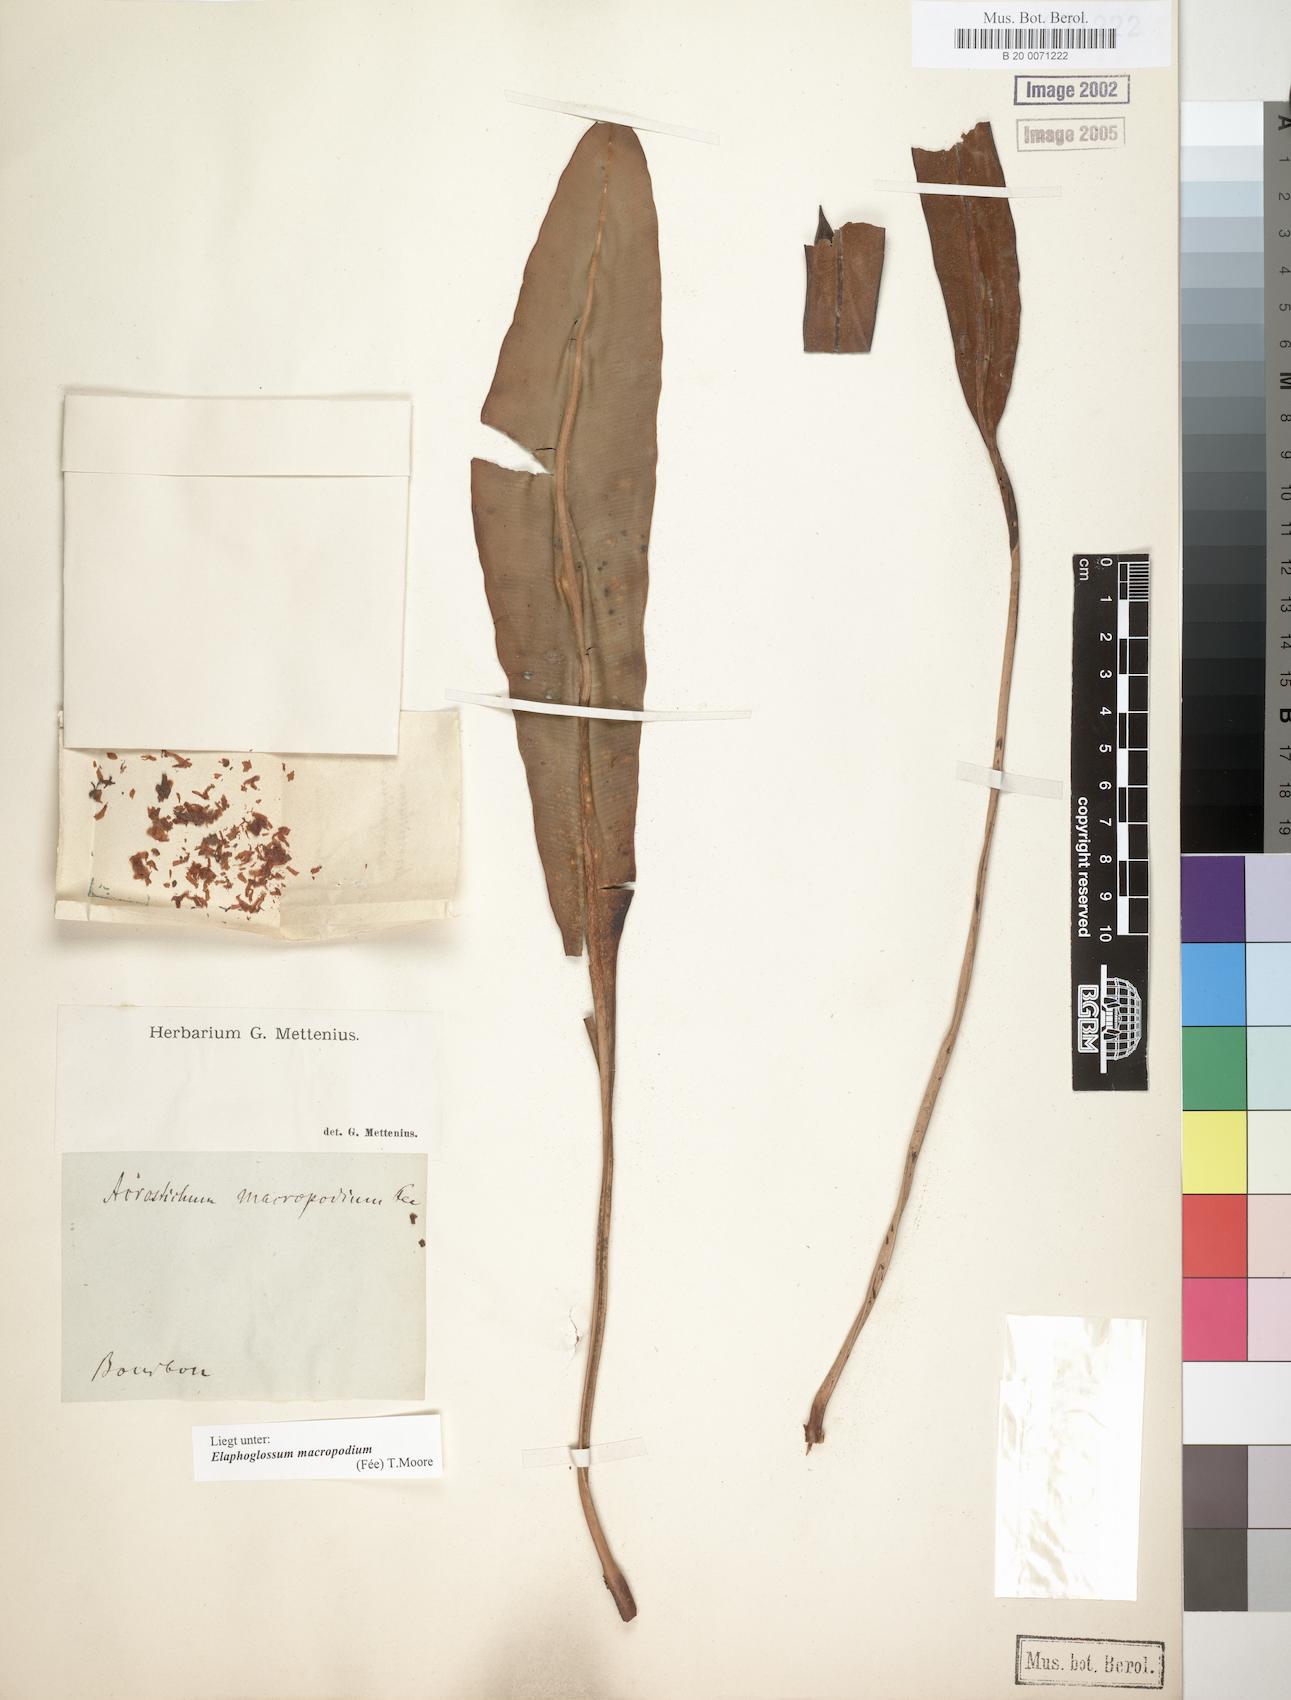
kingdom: Plantae
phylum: Tracheophyta
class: Polypodiopsida
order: Polypodiales
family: Dryopteridaceae
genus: Elaphoglossum
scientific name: Elaphoglossum macropodium
